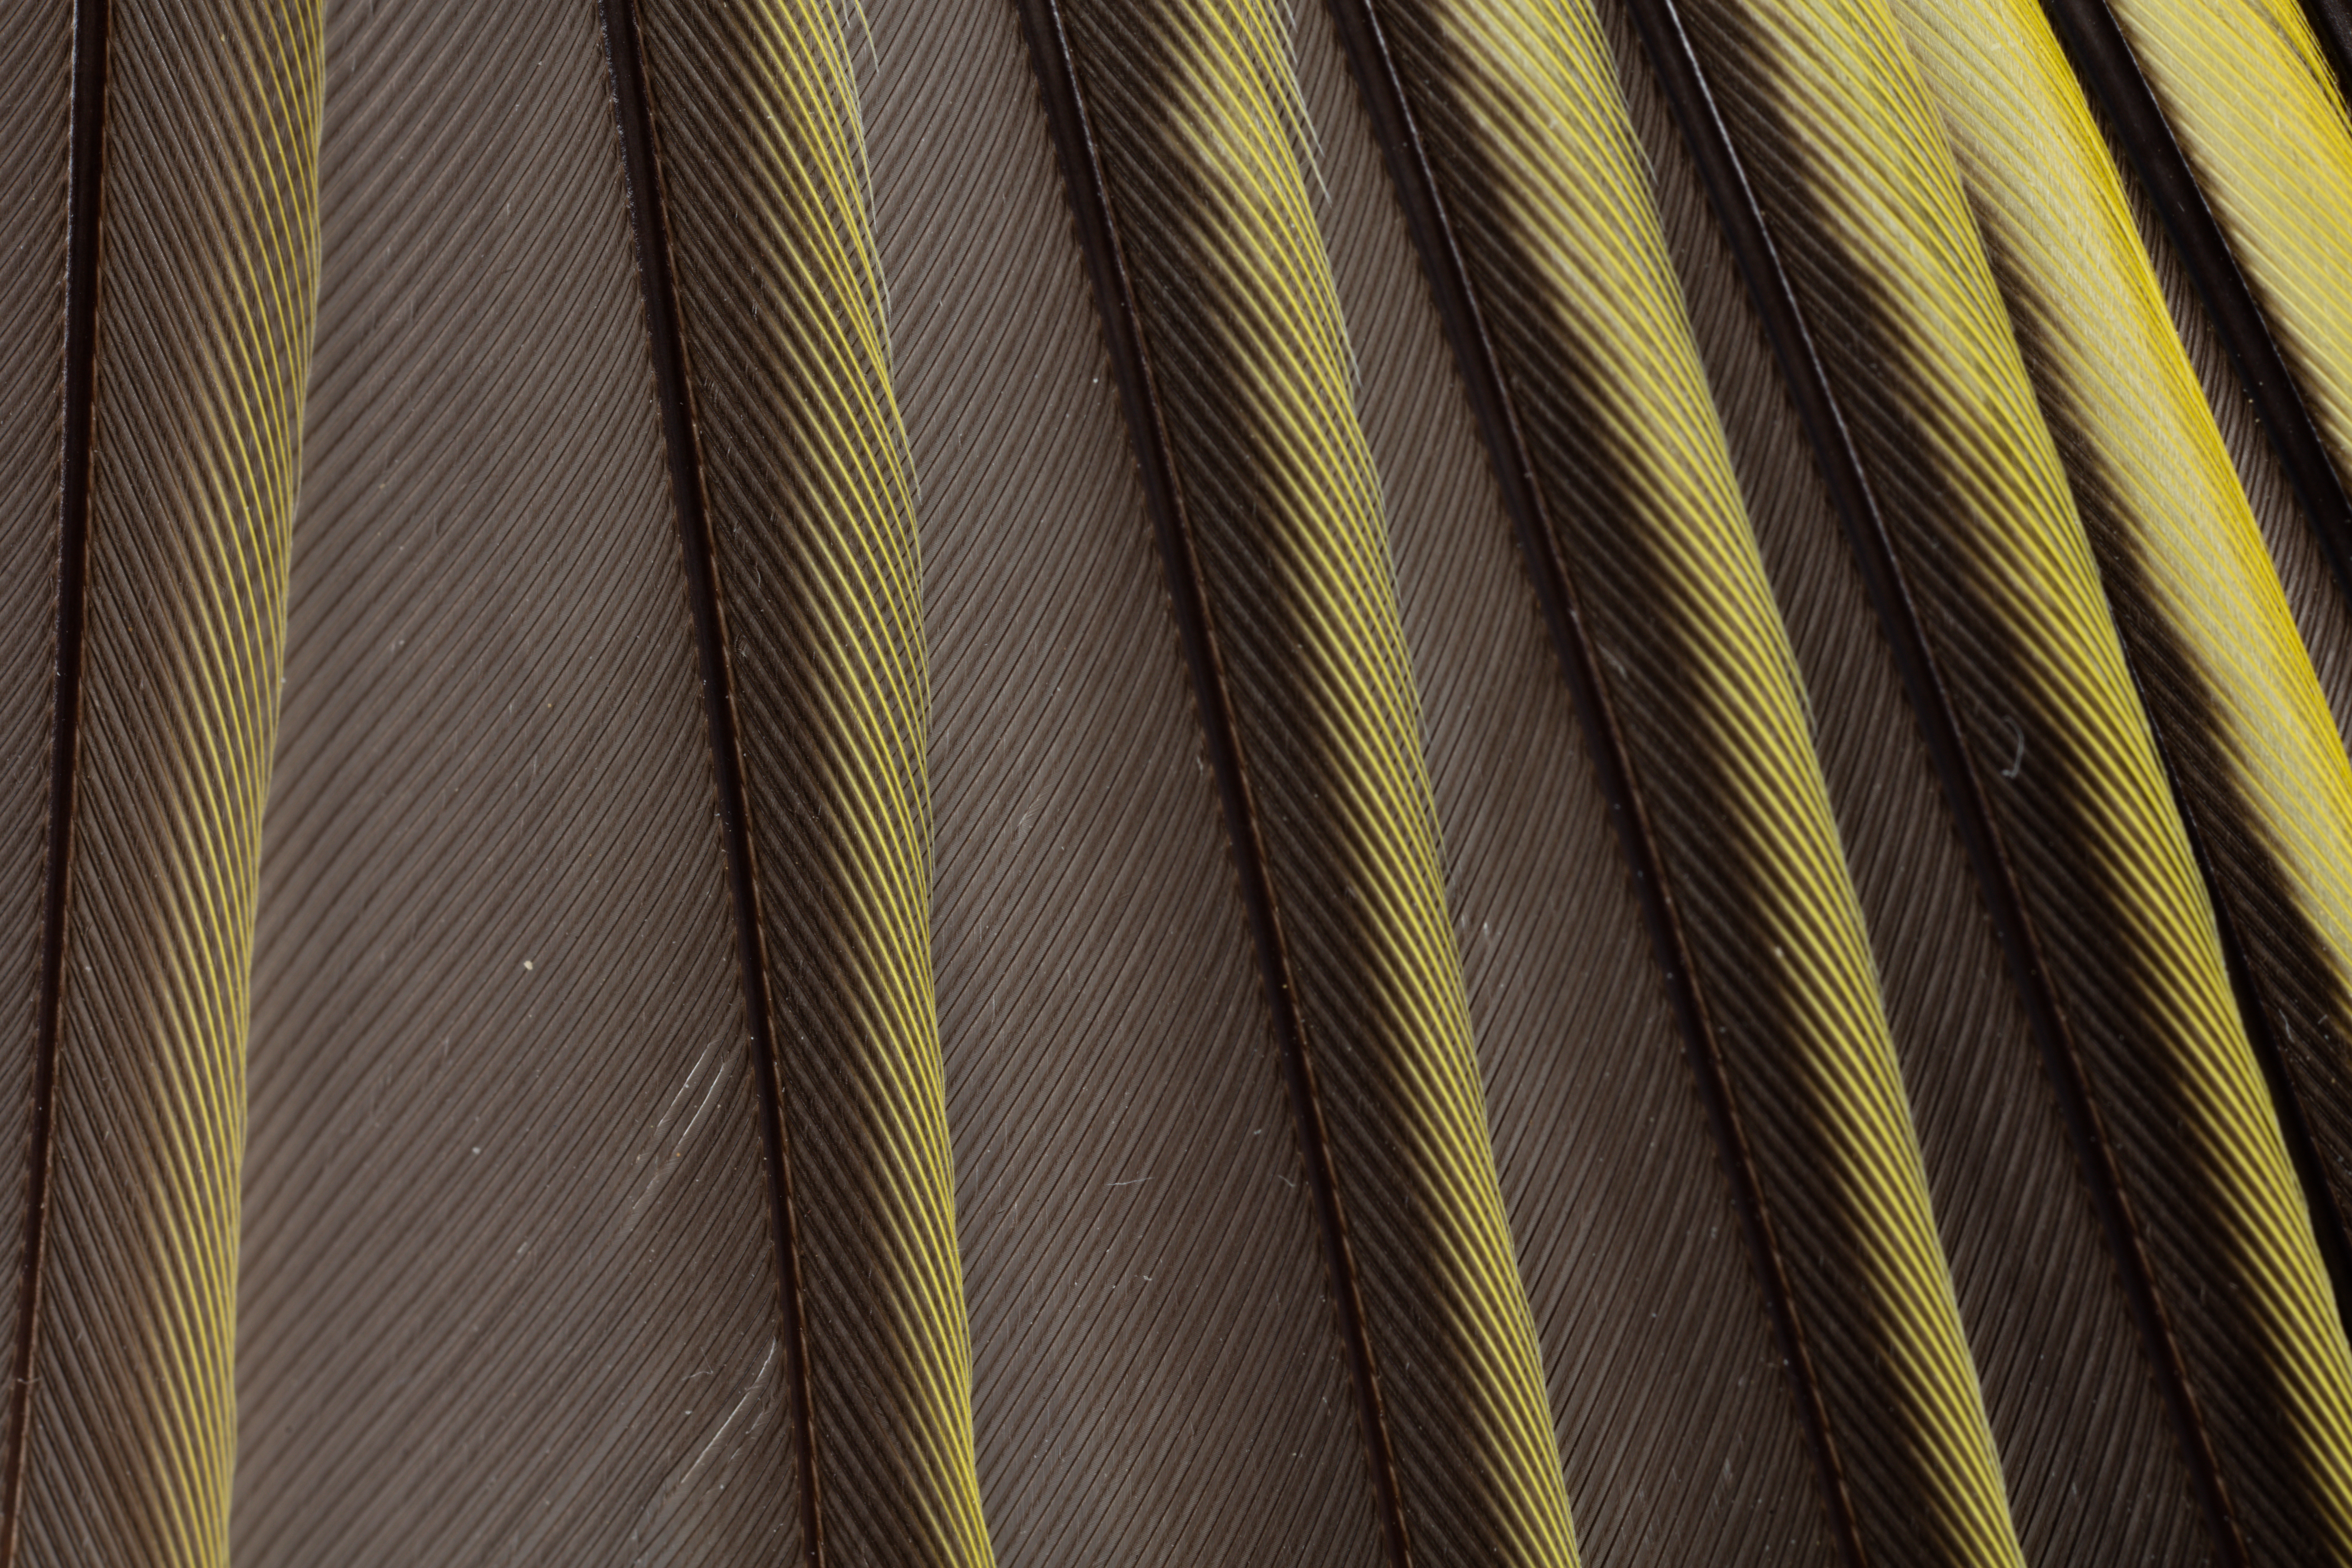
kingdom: Plantae
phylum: Tracheophyta
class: Liliopsida
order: Poales
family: Poaceae
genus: Chloris
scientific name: Chloris chloris
